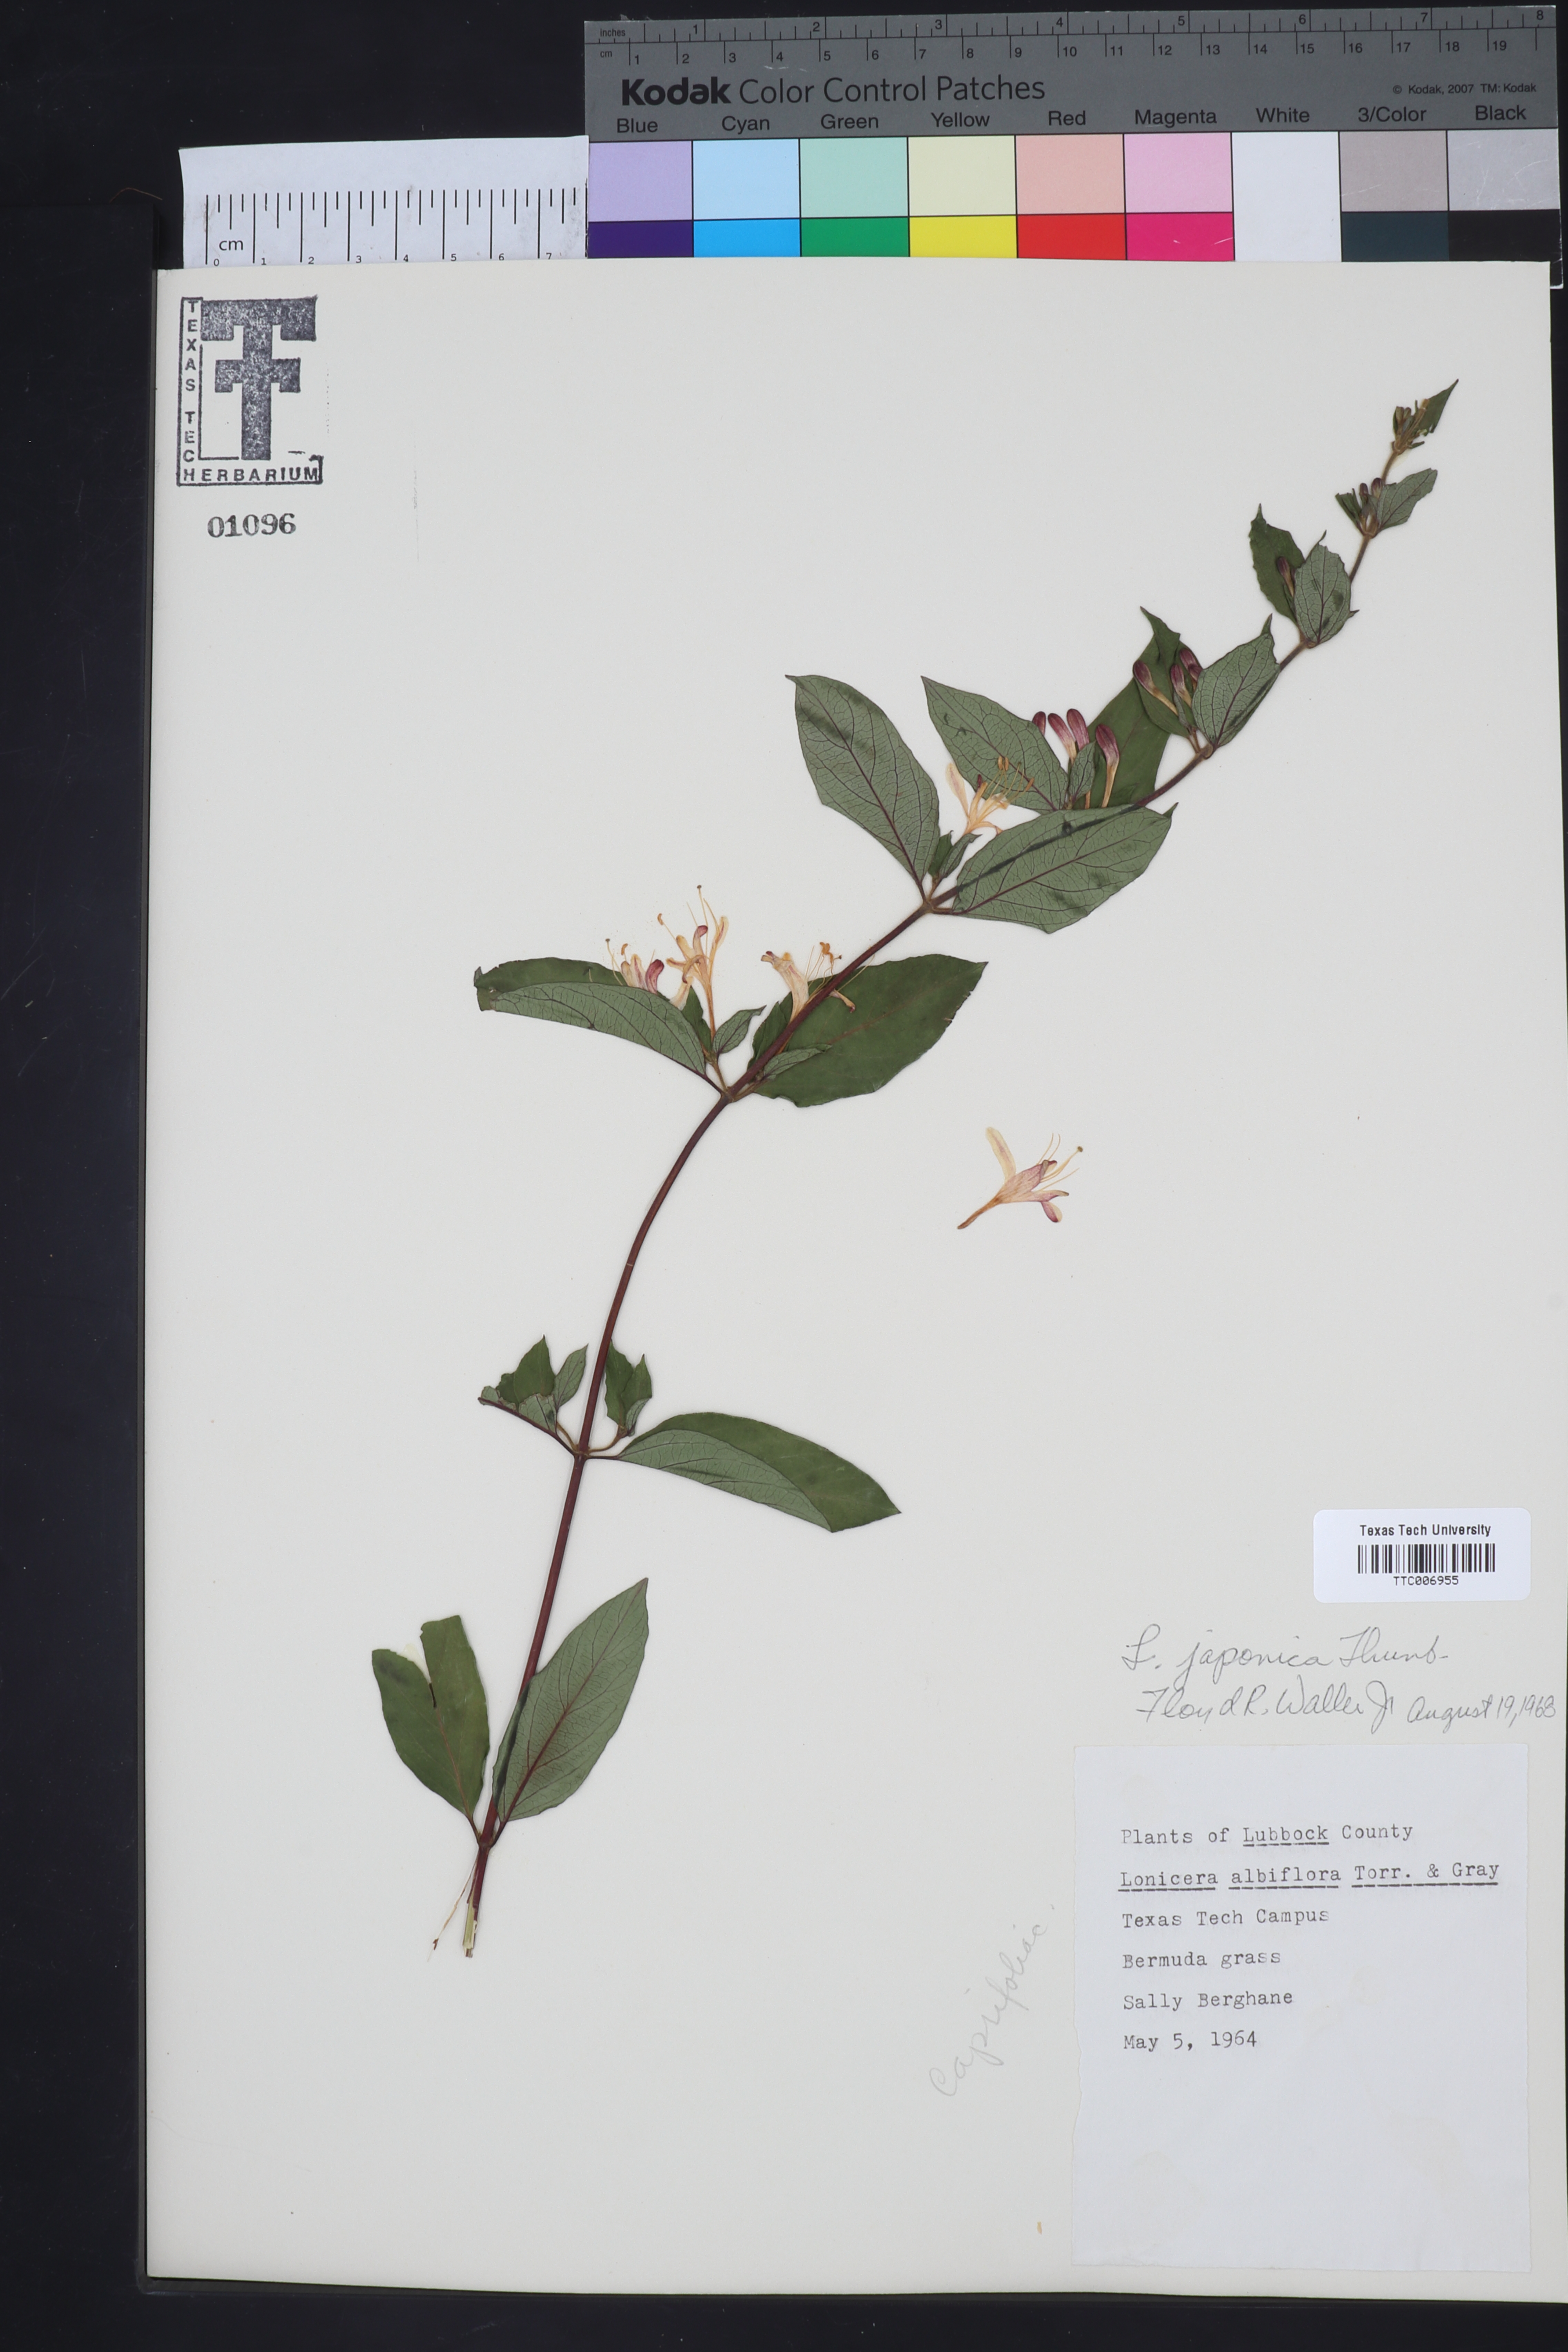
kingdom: Plantae
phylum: Tracheophyta
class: Magnoliopsida
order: Dipsacales
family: Caprifoliaceae
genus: Lonicera
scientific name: Lonicera japonica
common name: Japanese honeysuckle
